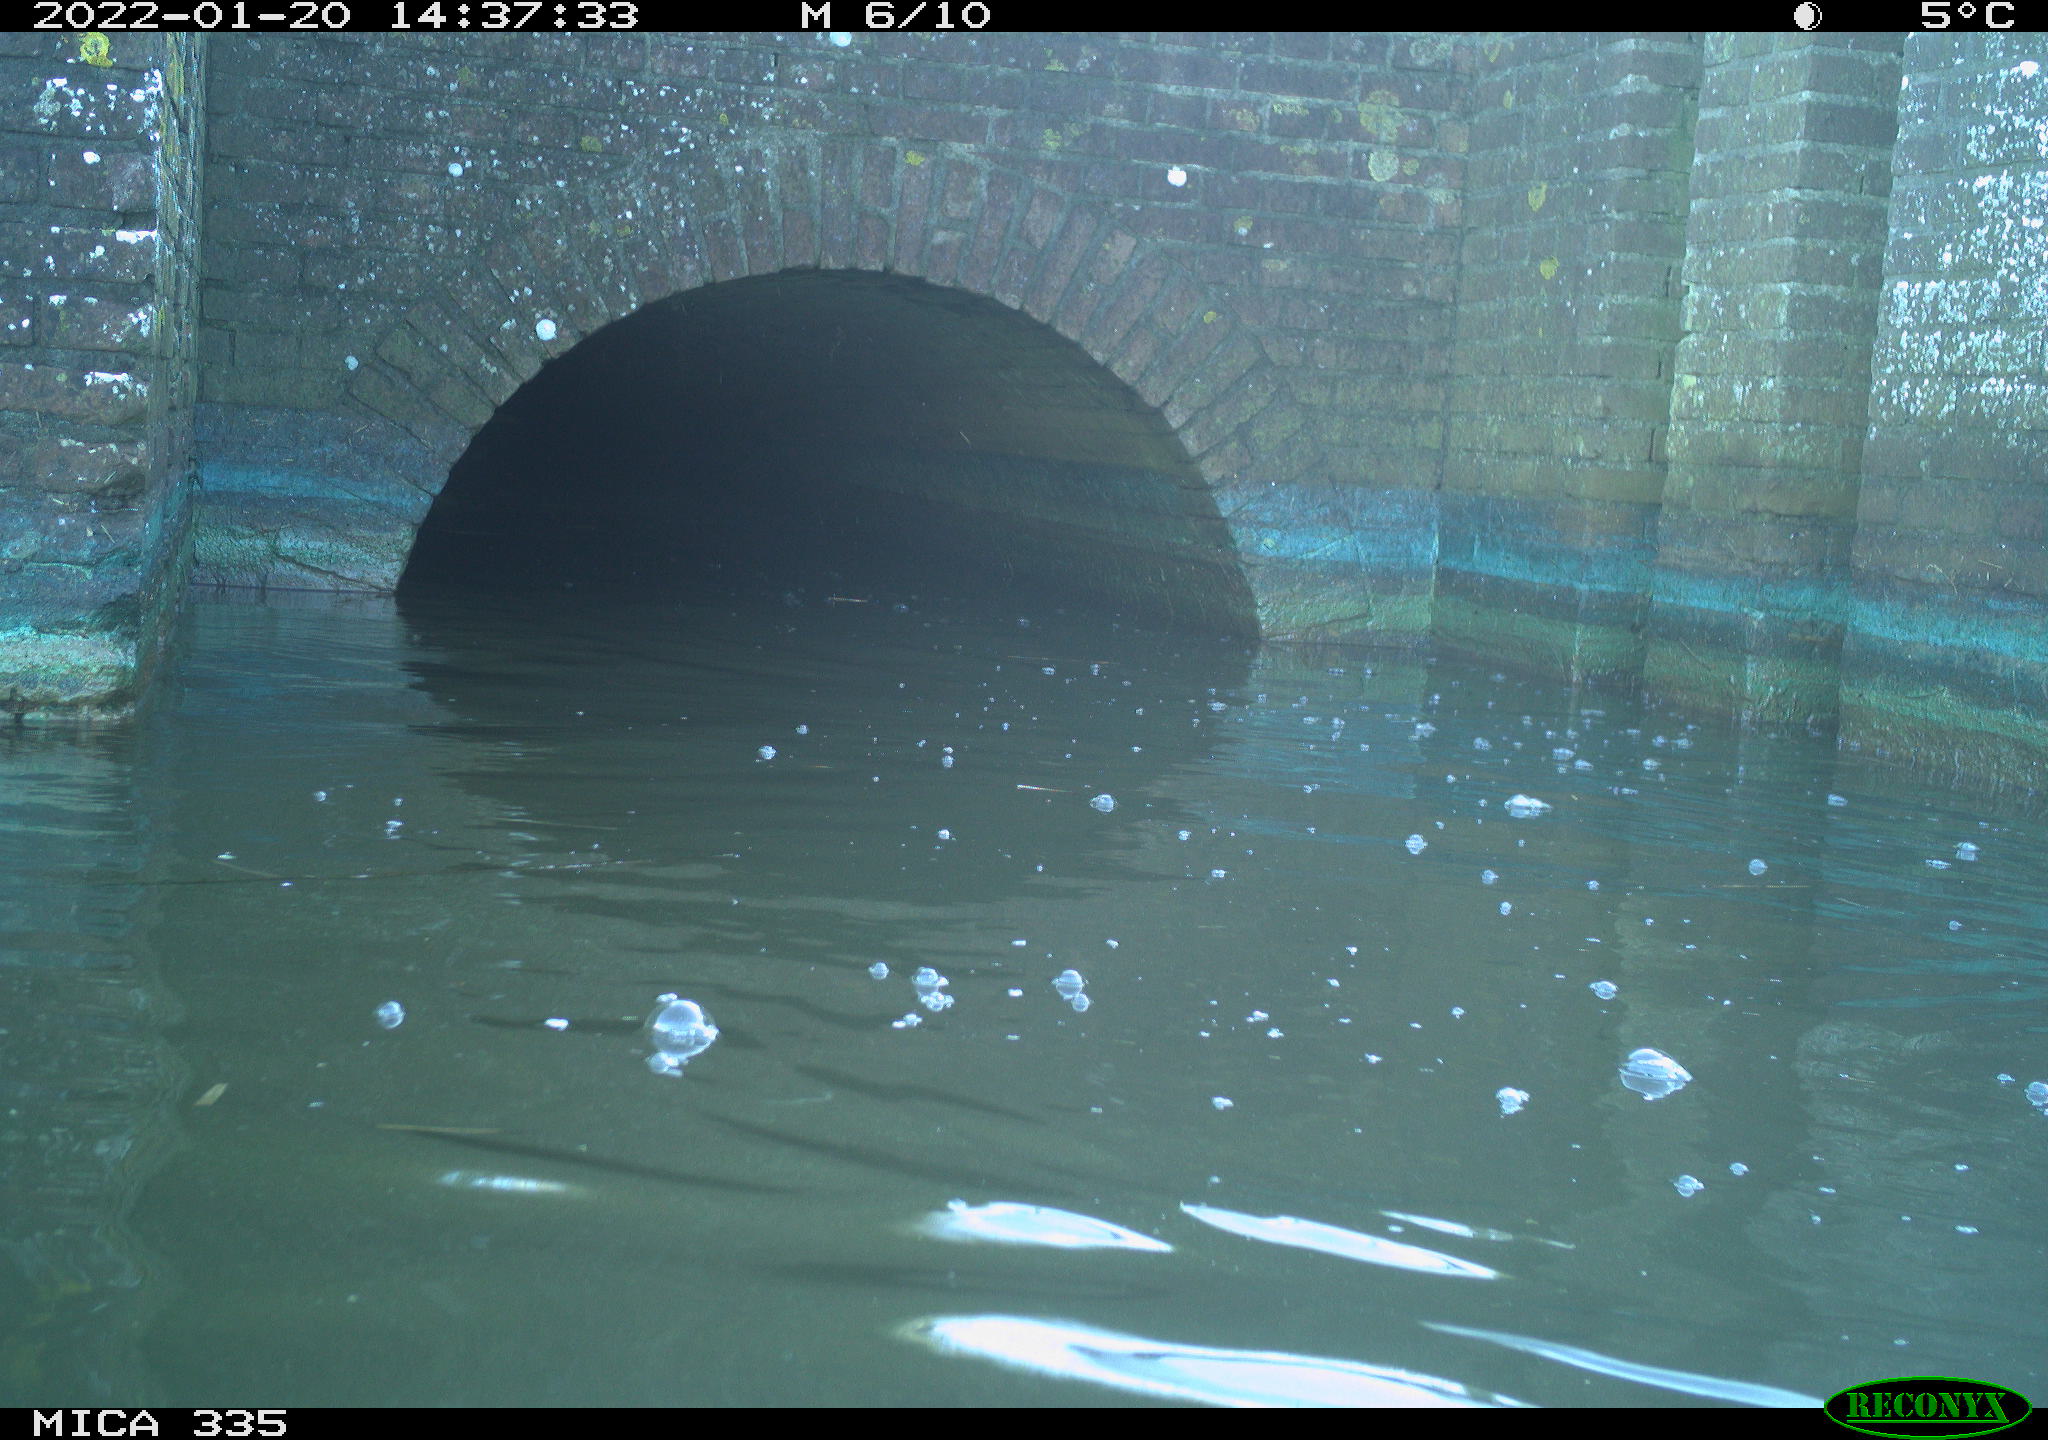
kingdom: Animalia
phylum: Chordata
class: Aves
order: Suliformes
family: Phalacrocoracidae
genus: Phalacrocorax
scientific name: Phalacrocorax carbo
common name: Great cormorant
